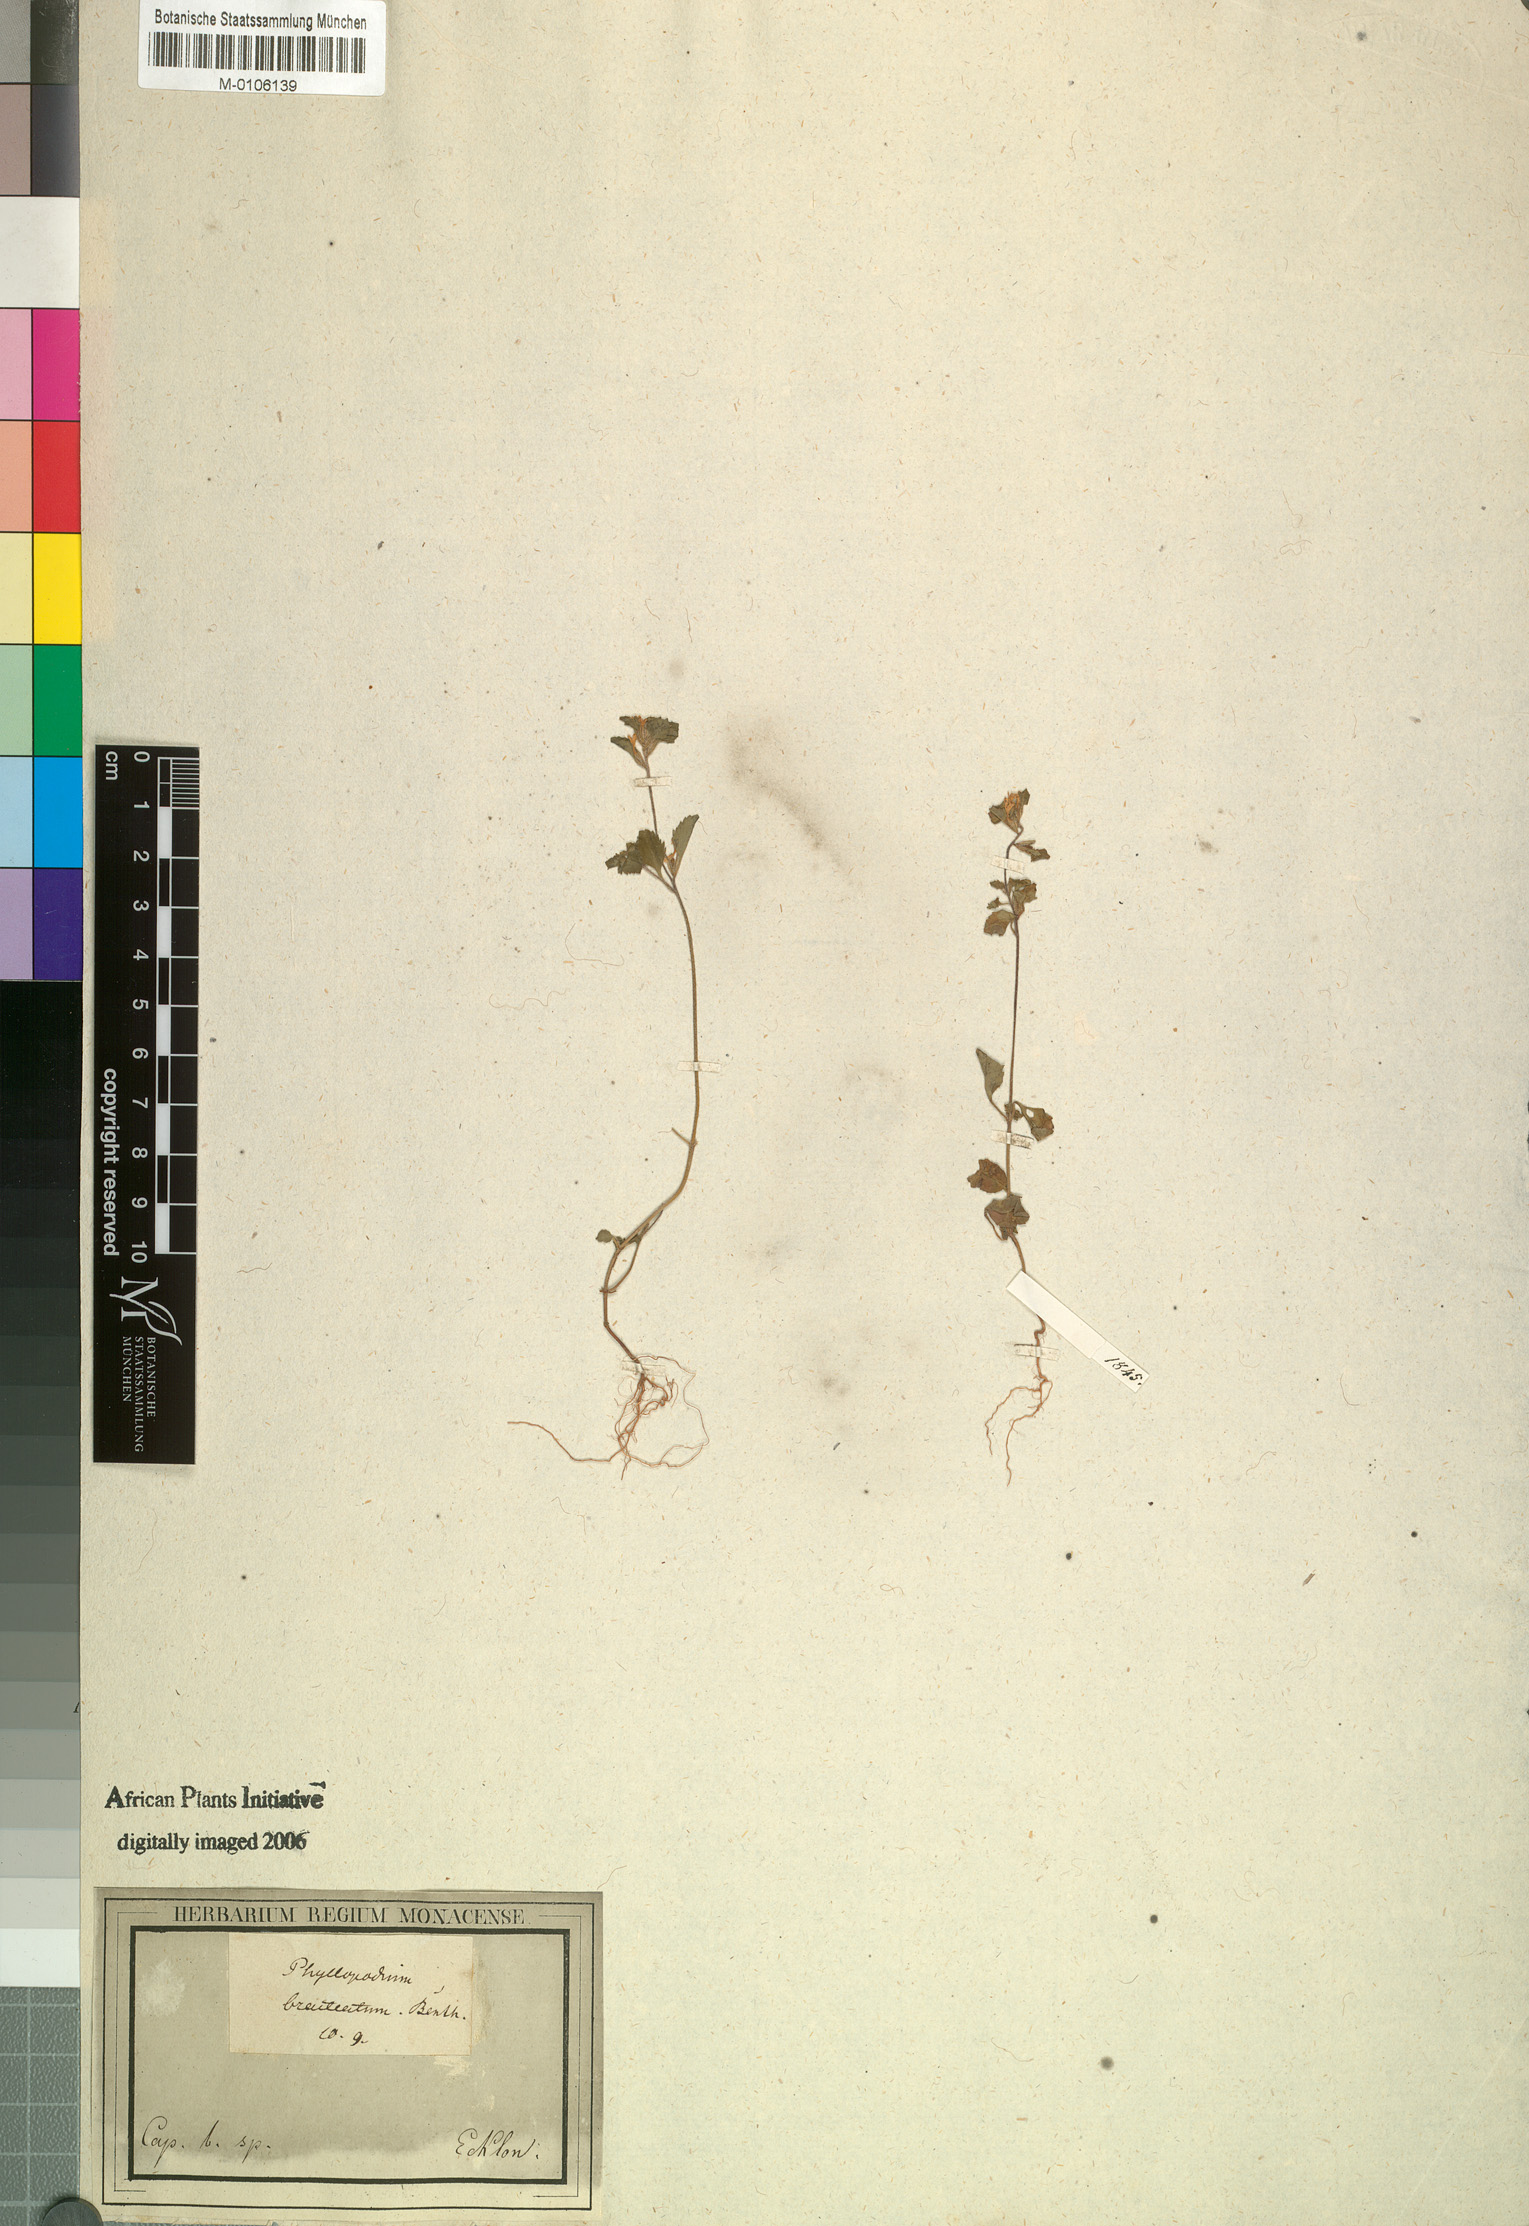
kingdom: Plantae
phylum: Tracheophyta
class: Magnoliopsida
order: Lamiales
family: Scrophulariaceae
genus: Phyllopodium
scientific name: Phyllopodium bracteatum
